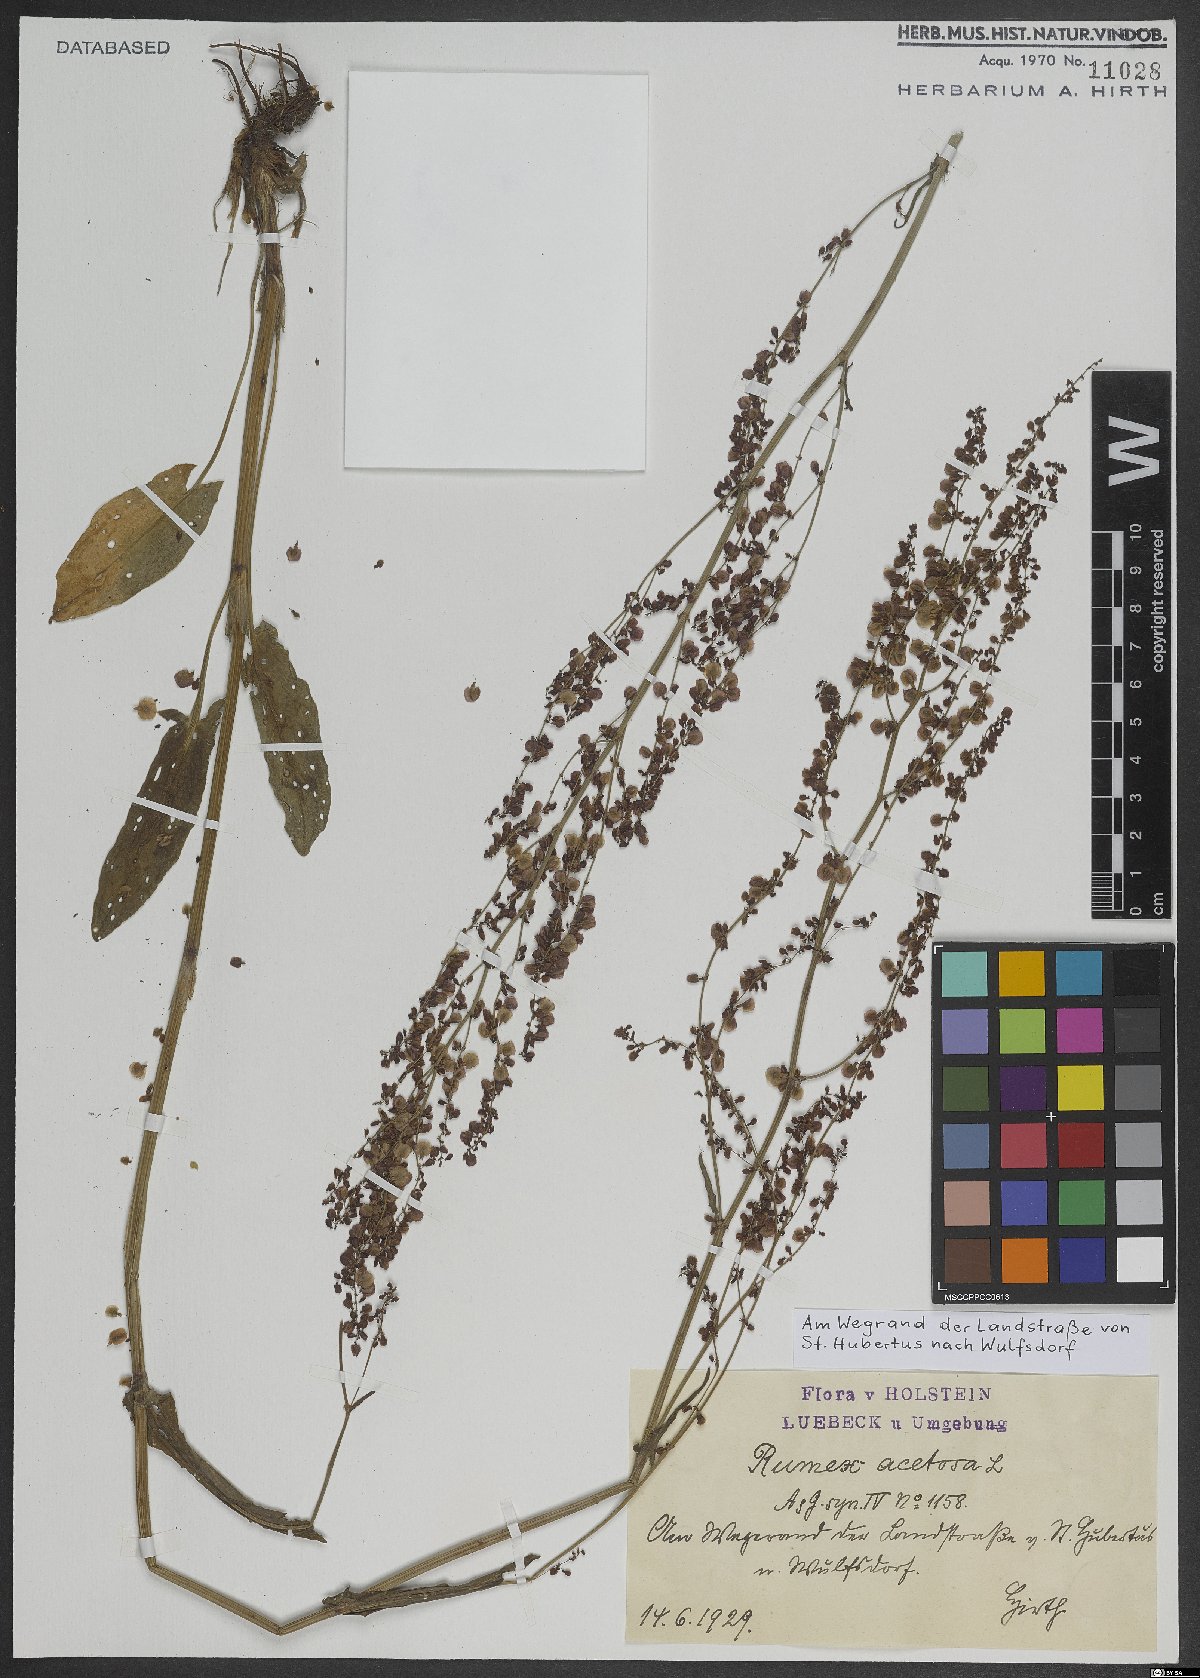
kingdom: Plantae
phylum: Tracheophyta
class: Magnoliopsida
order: Caryophyllales
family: Polygonaceae
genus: Rumex
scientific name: Rumex acetosa
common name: Garden sorrel
